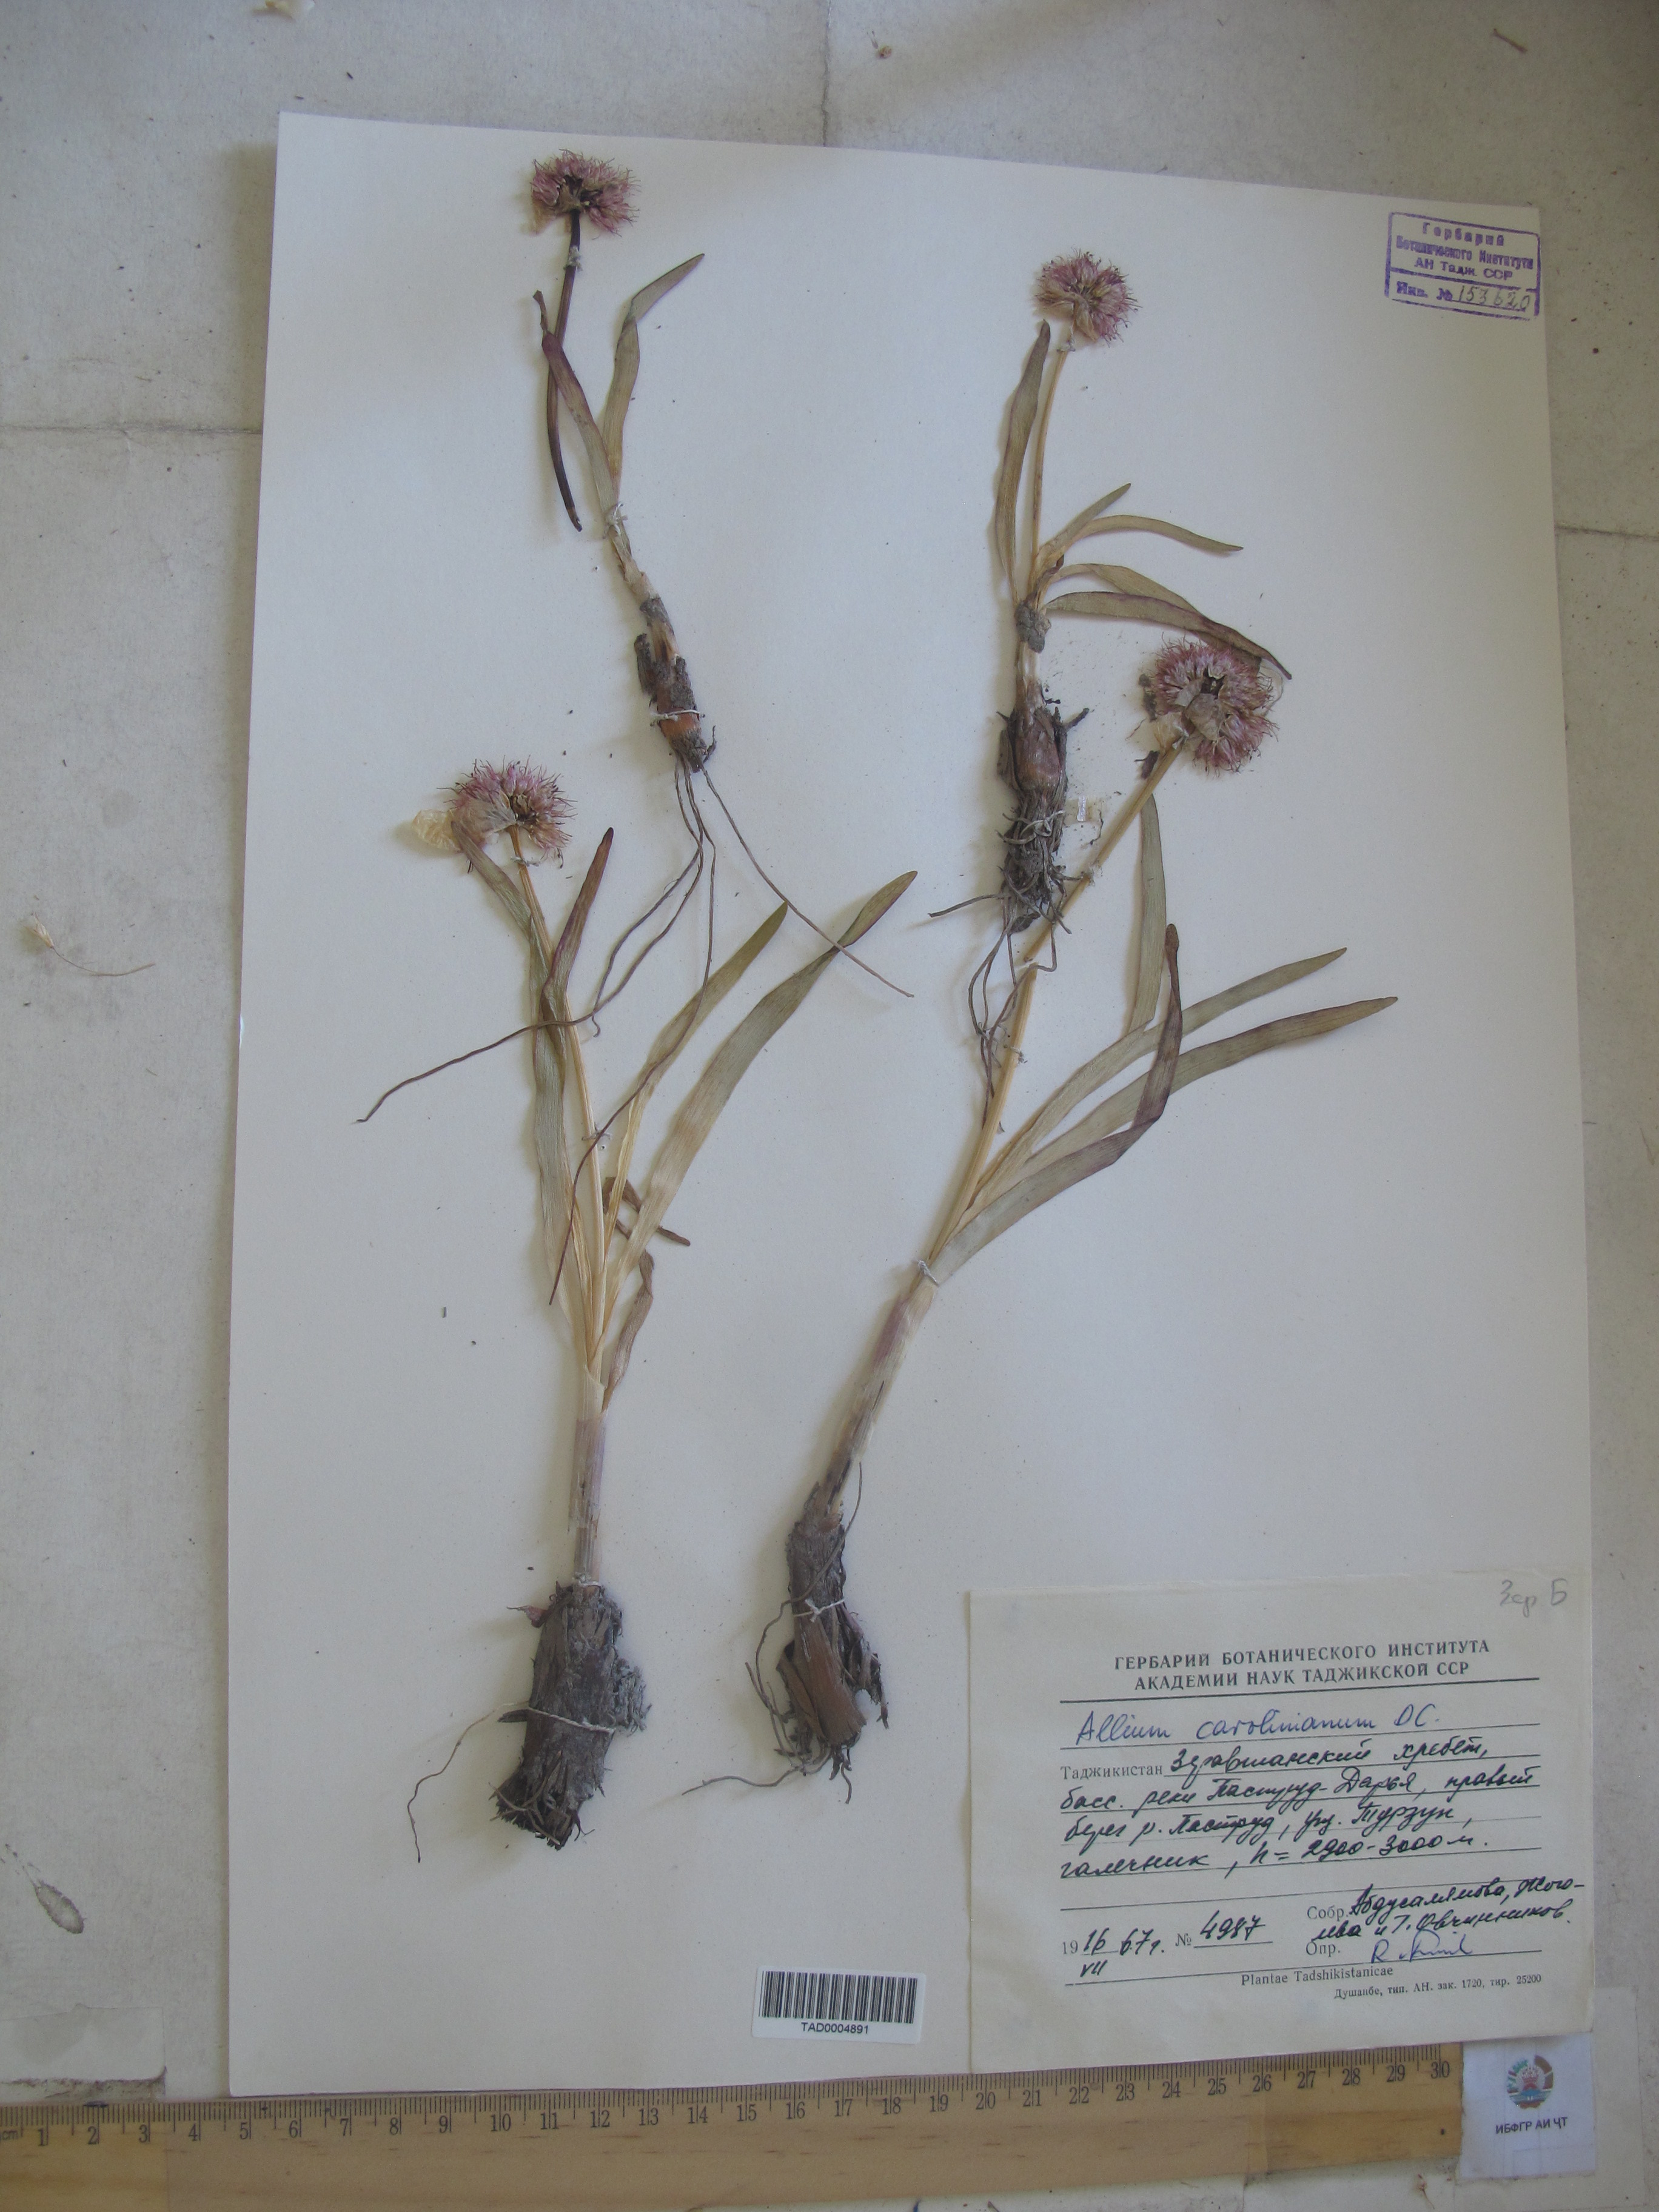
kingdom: Plantae
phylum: Tracheophyta
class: Liliopsida
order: Asparagales
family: Amaryllidaceae
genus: Allium
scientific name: Allium carolinianum
